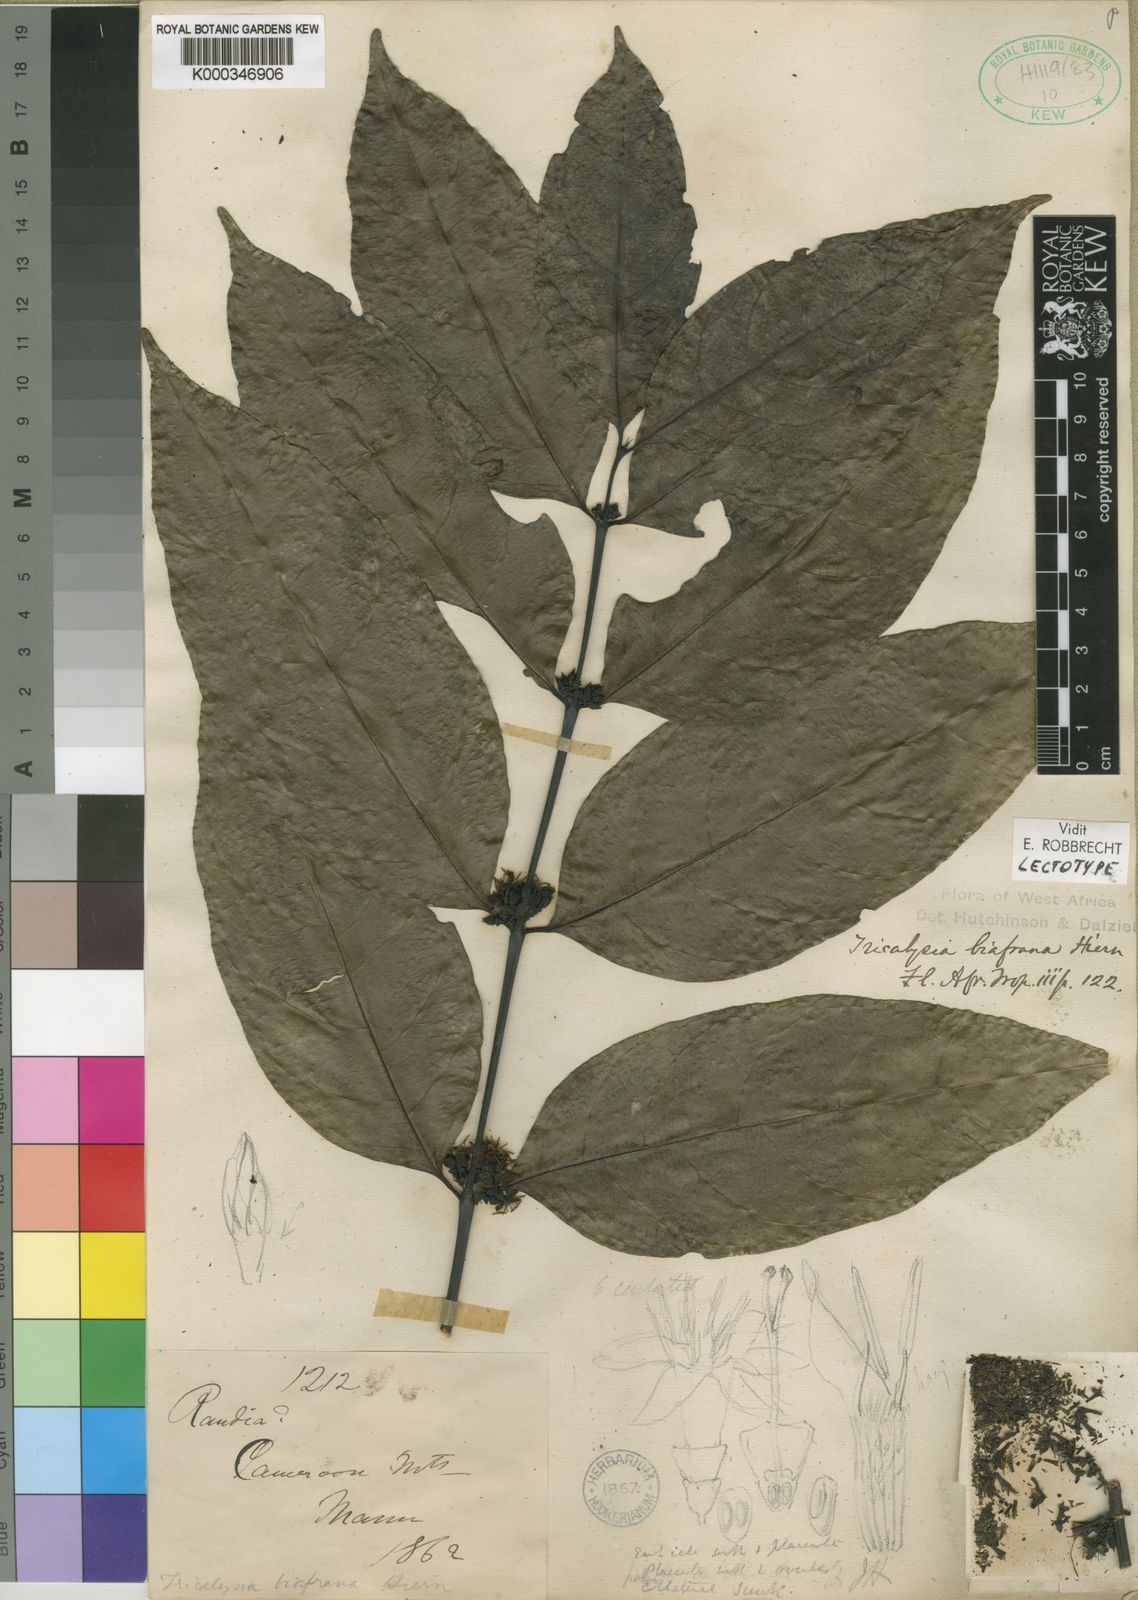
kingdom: Plantae
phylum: Tracheophyta
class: Magnoliopsida
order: Gentianales
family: Rubiaceae
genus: Tricalysia
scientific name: Tricalysia biafrana
